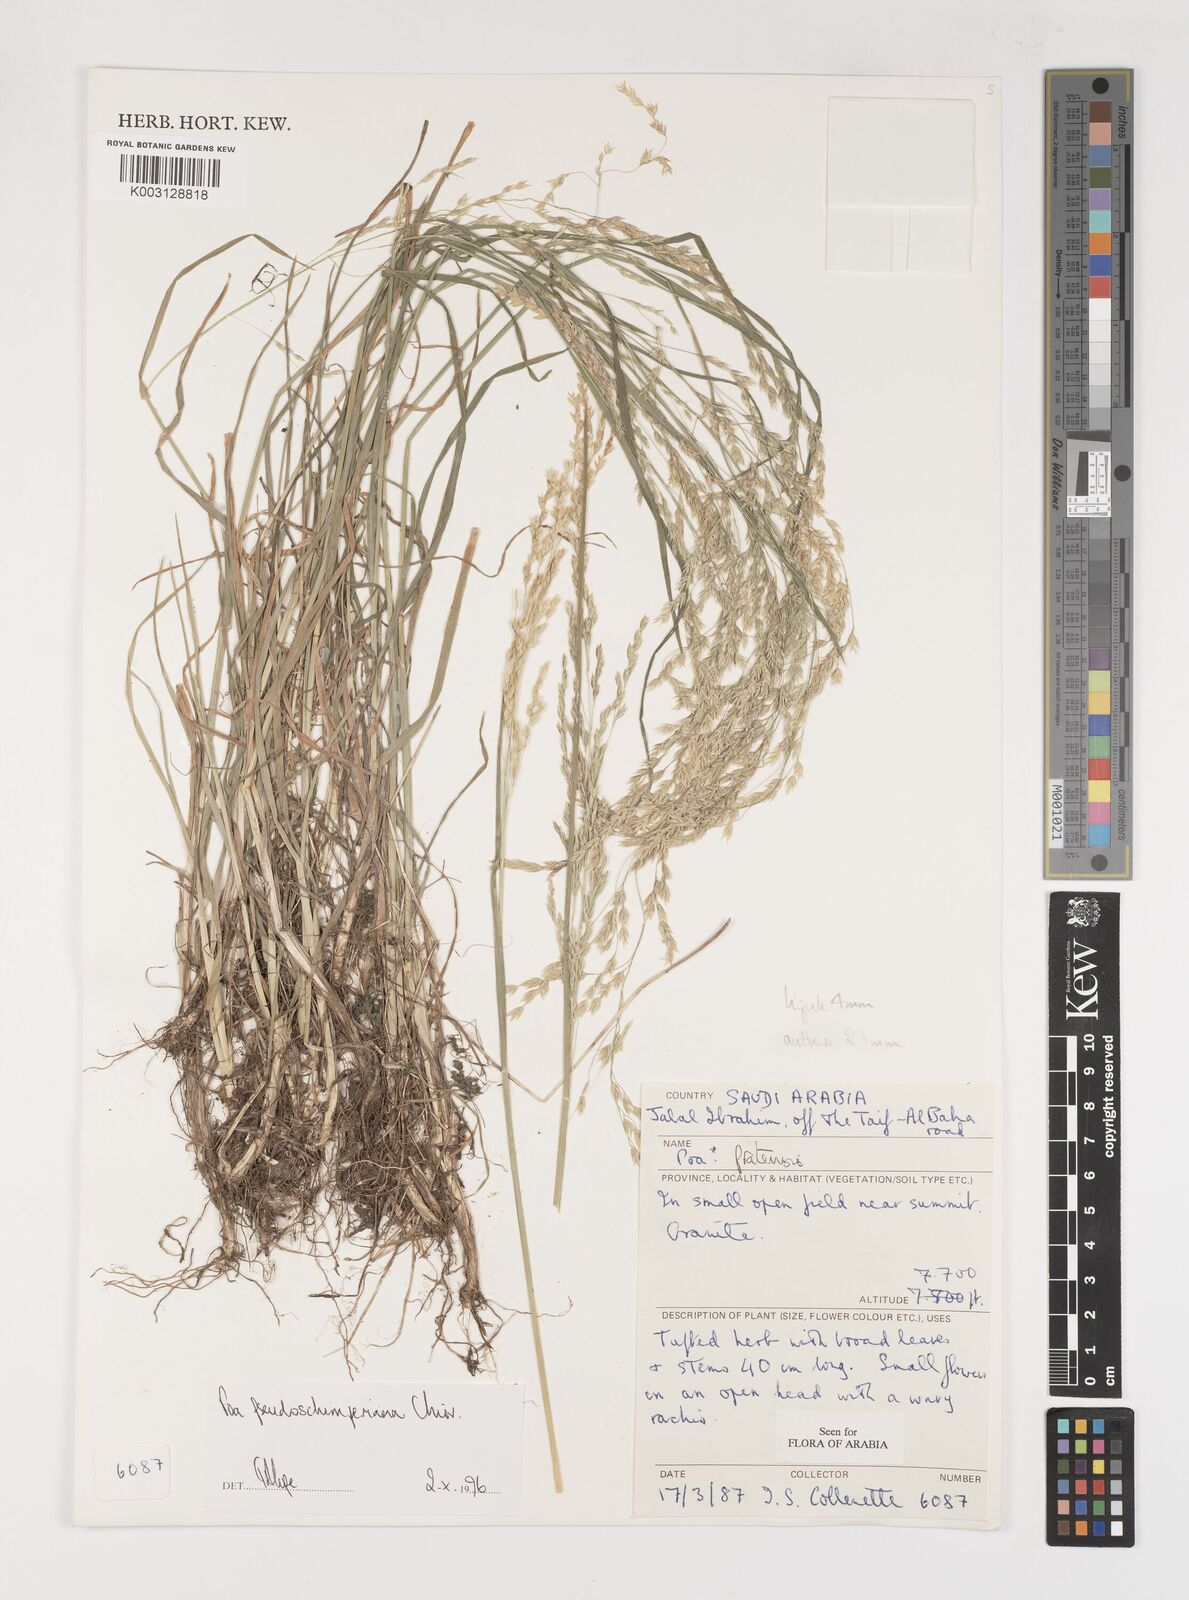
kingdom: Plantae
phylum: Tracheophyta
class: Liliopsida
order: Poales
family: Poaceae
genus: Poa
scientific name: Poa pseudoschimperiana
